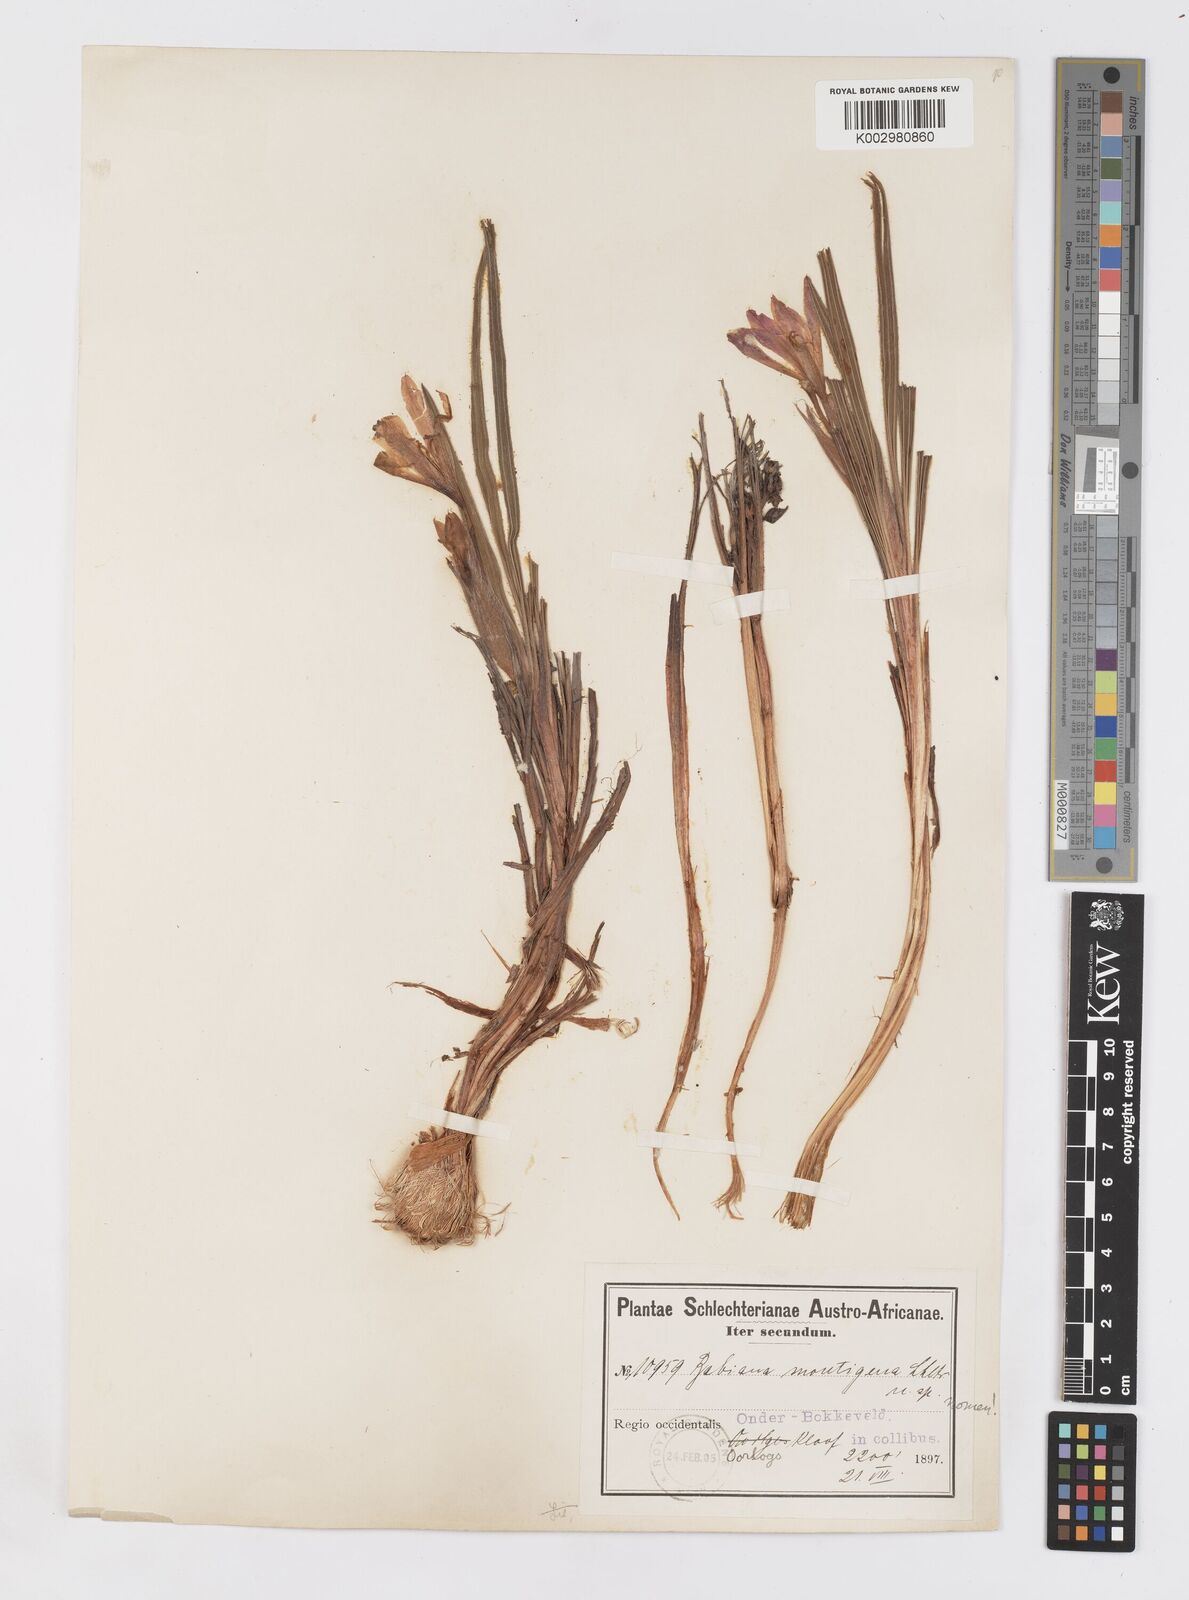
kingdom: Plantae
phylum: Tracheophyta
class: Liliopsida
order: Asparagales
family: Iridaceae
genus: Babiana
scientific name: Babiana sambucina
